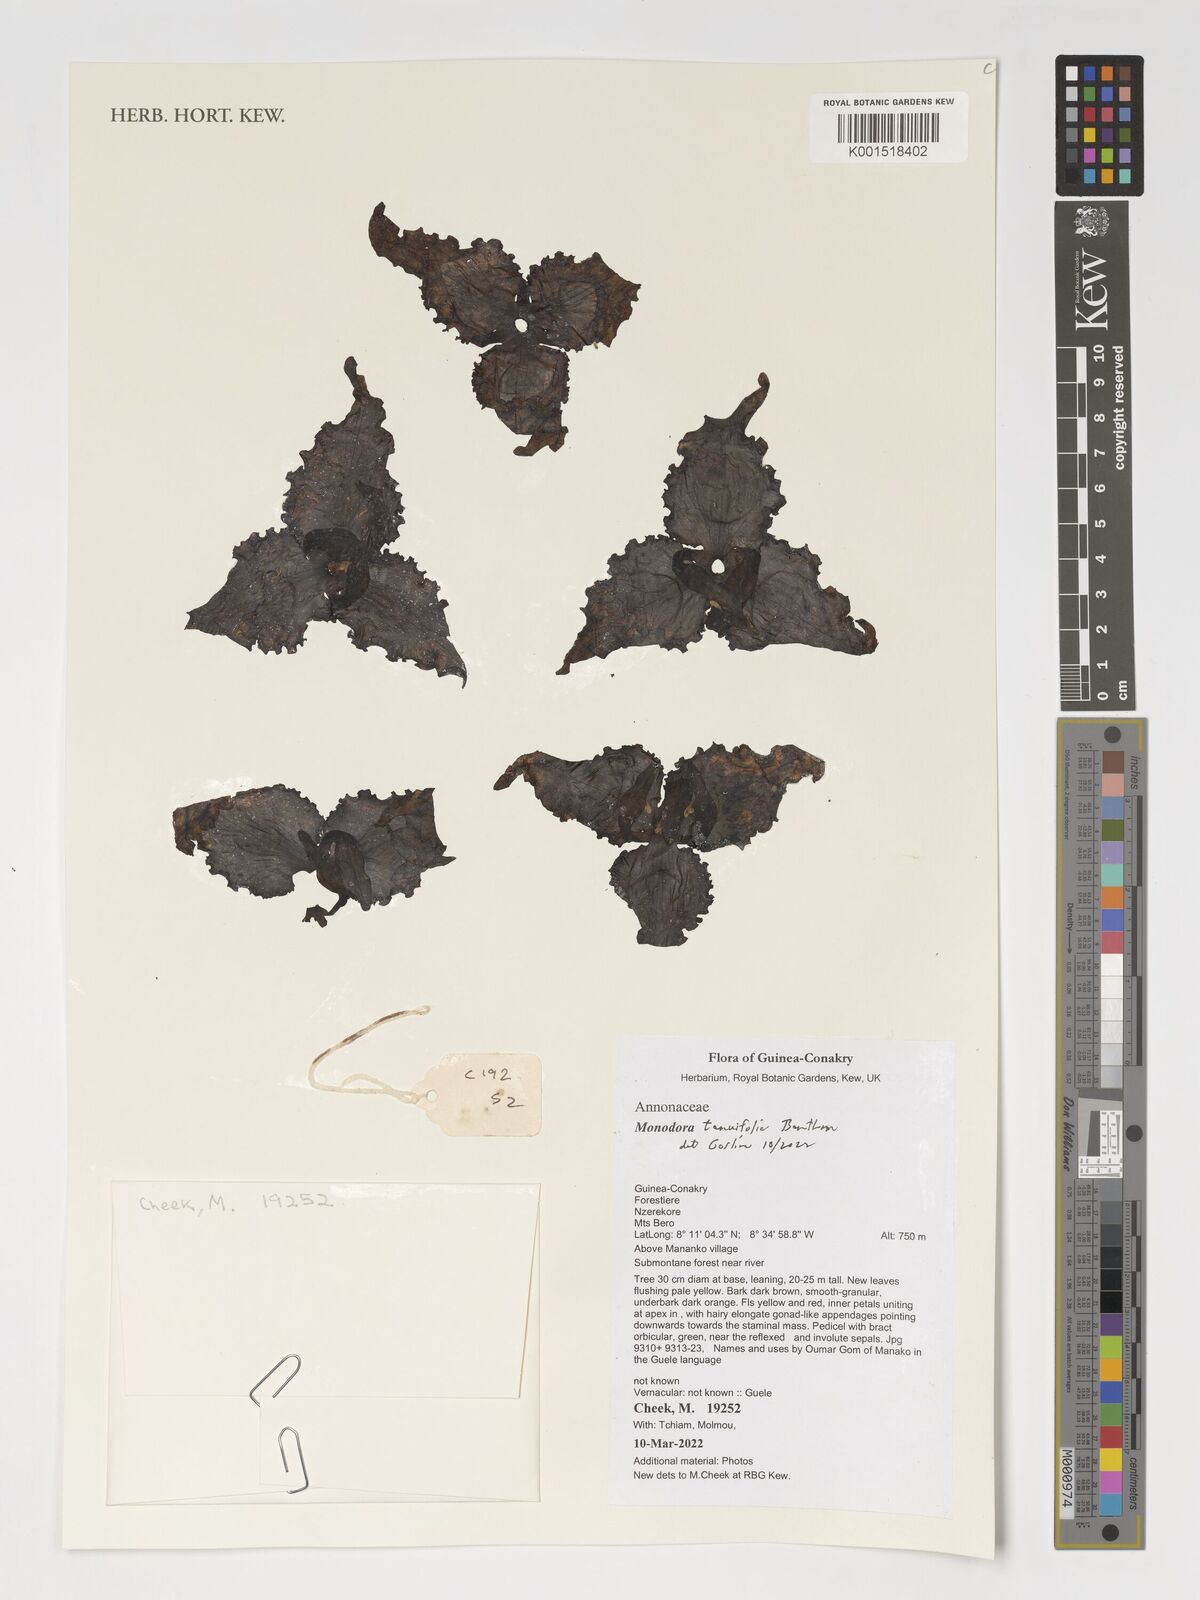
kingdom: Plantae
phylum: Tracheophyta
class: Magnoliopsida
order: Magnoliales
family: Annonaceae
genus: Monodora
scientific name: Monodora tenuifolia
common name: Orchidtree
